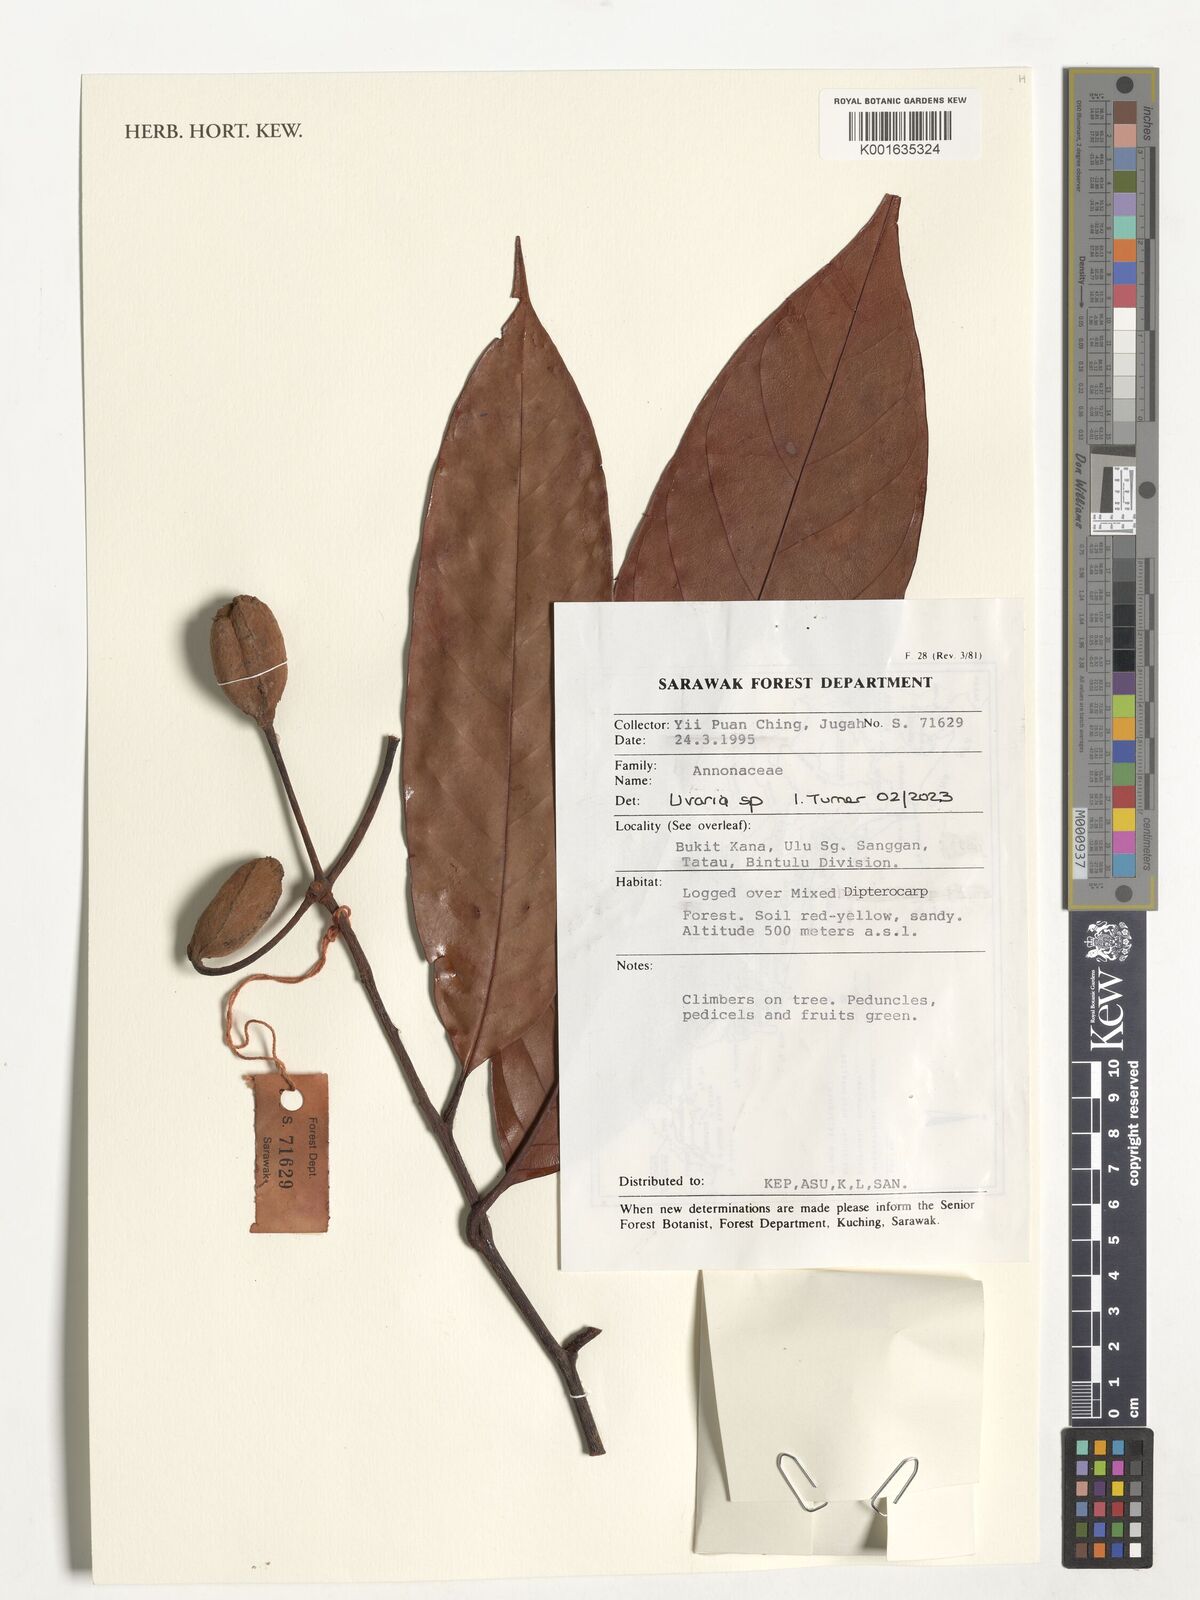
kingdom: Plantae
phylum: Tracheophyta
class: Magnoliopsida
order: Fabales
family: Fabaceae
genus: Uraria
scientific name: Uraria
